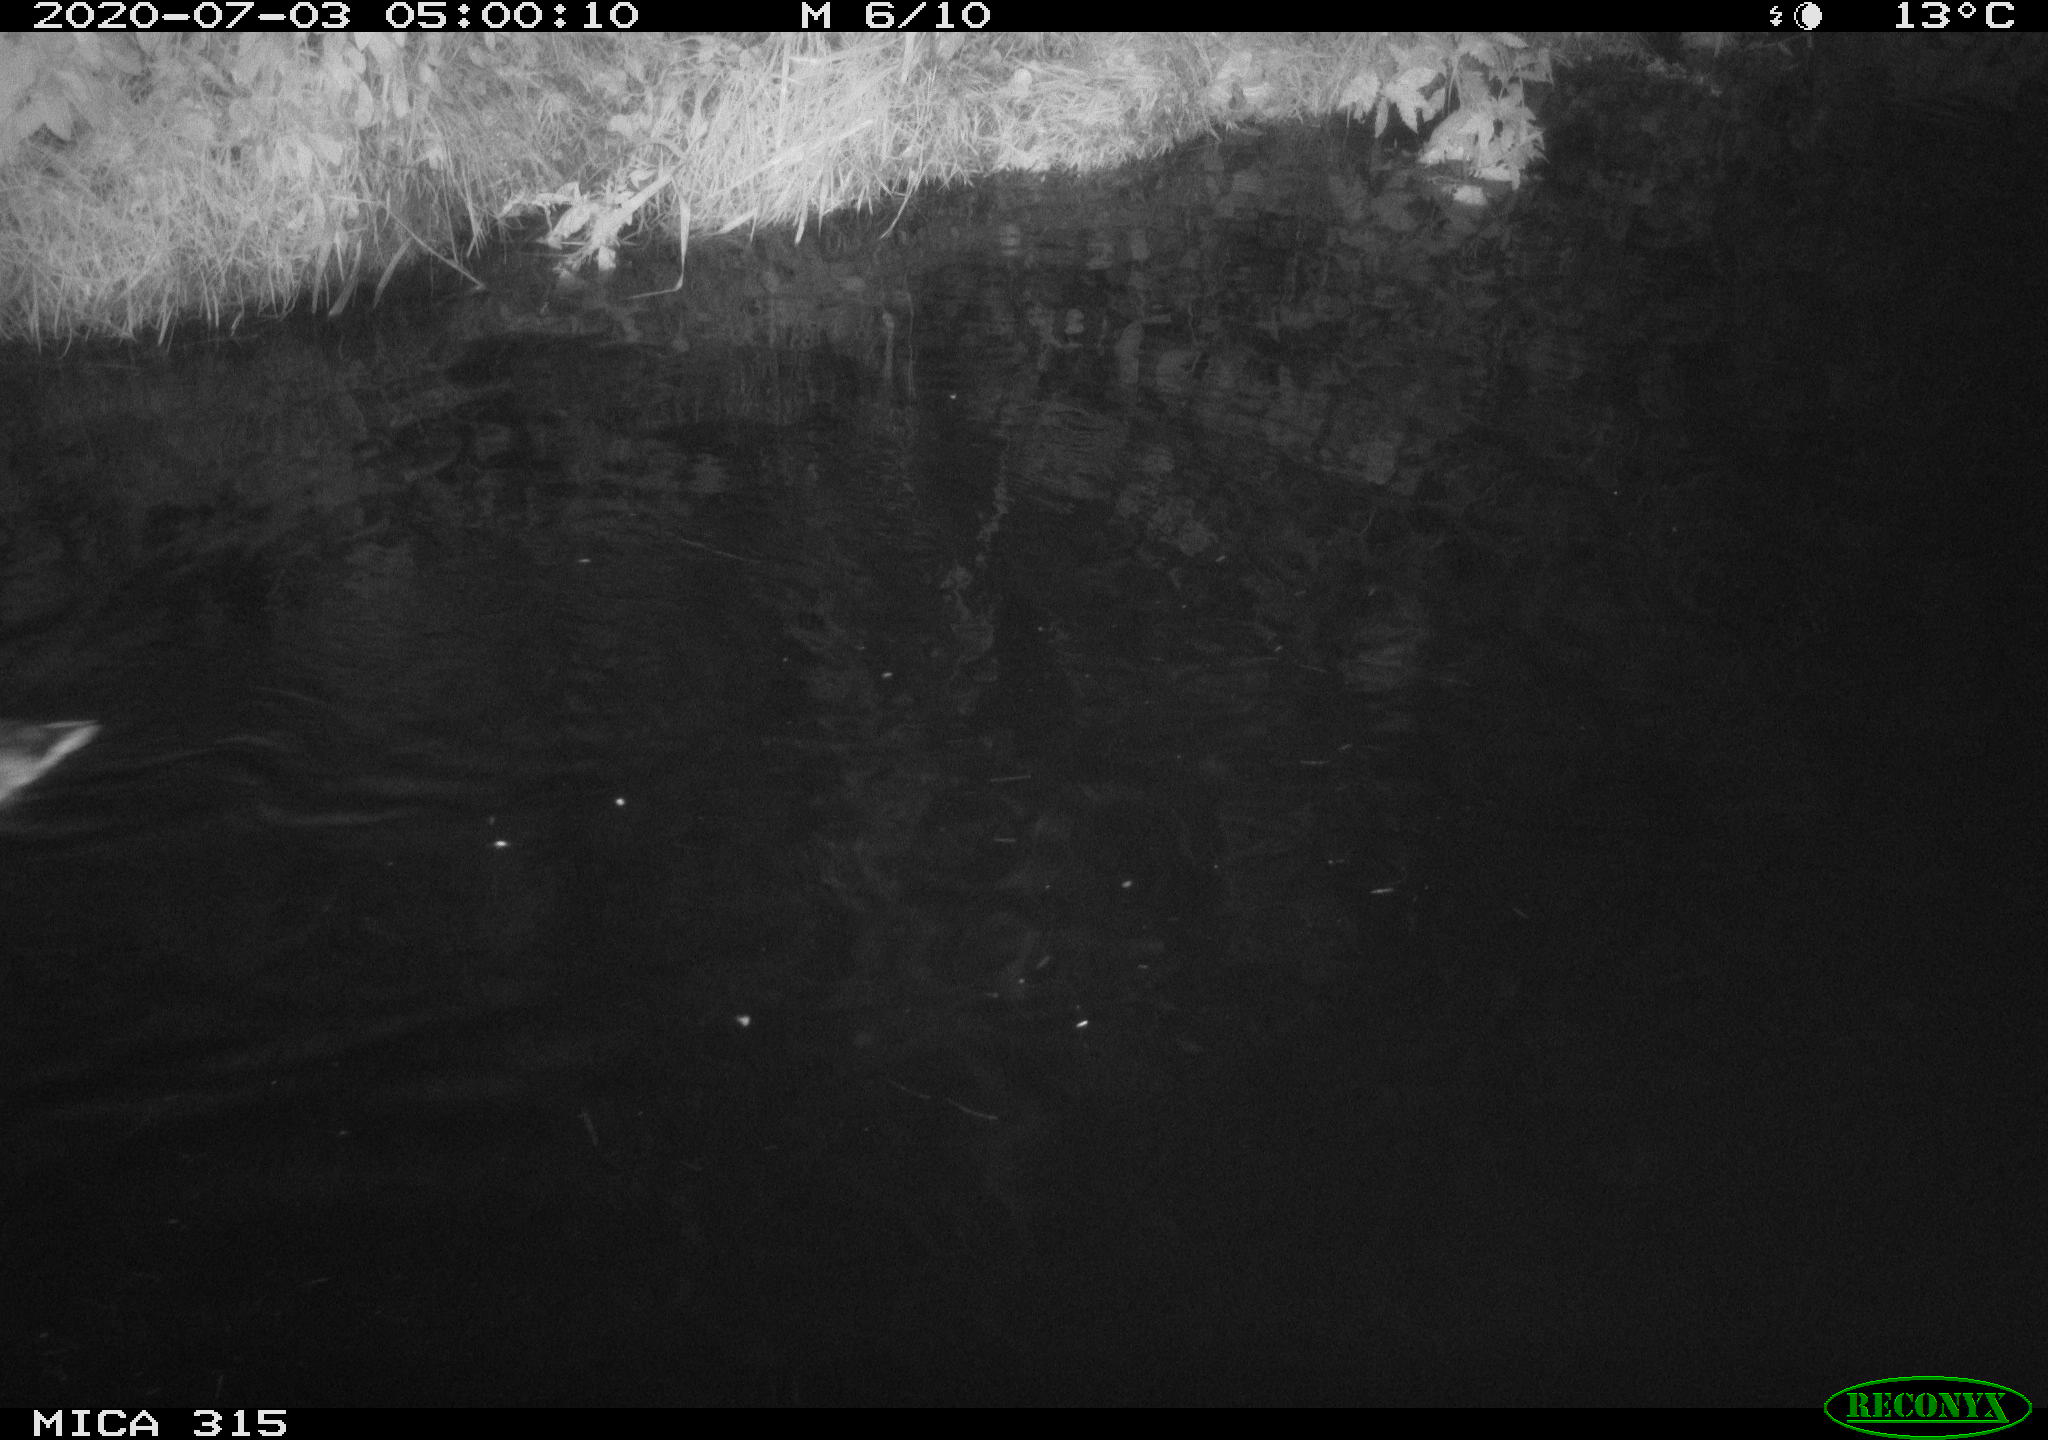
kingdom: Animalia
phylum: Chordata
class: Aves
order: Anseriformes
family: Anatidae
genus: Anas
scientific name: Anas platyrhynchos
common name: Mallard
